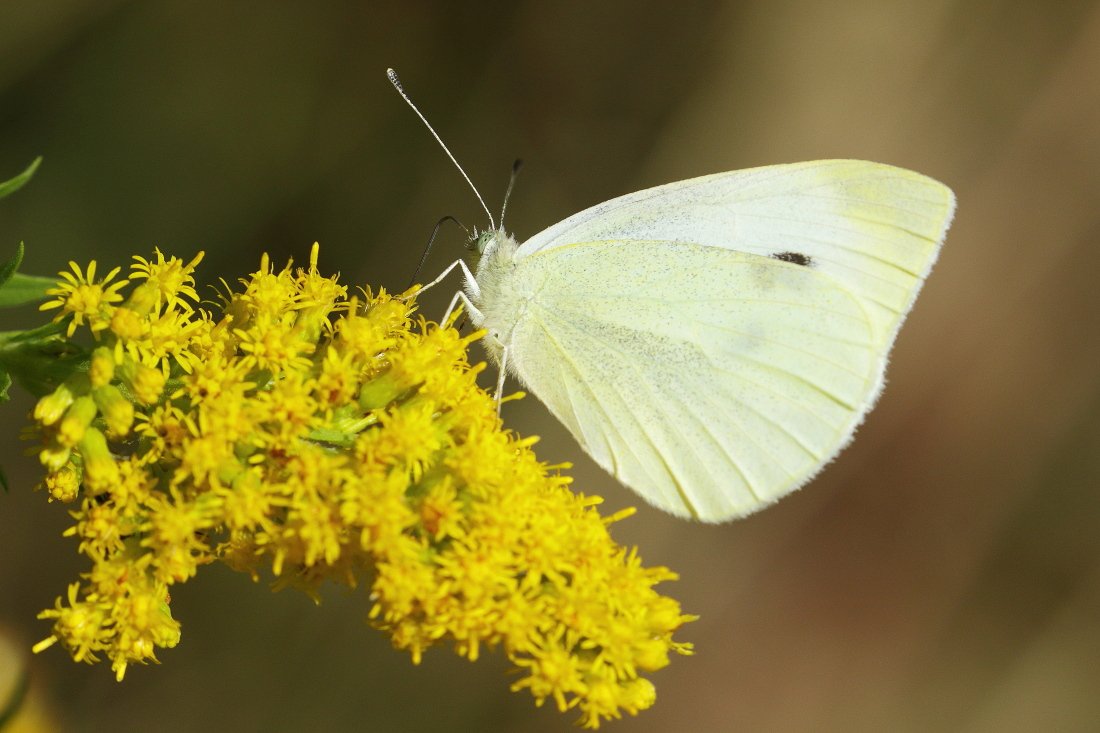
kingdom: Animalia
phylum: Arthropoda
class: Insecta
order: Lepidoptera
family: Pieridae
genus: Pieris
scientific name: Pieris rapae
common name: Cabbage White
